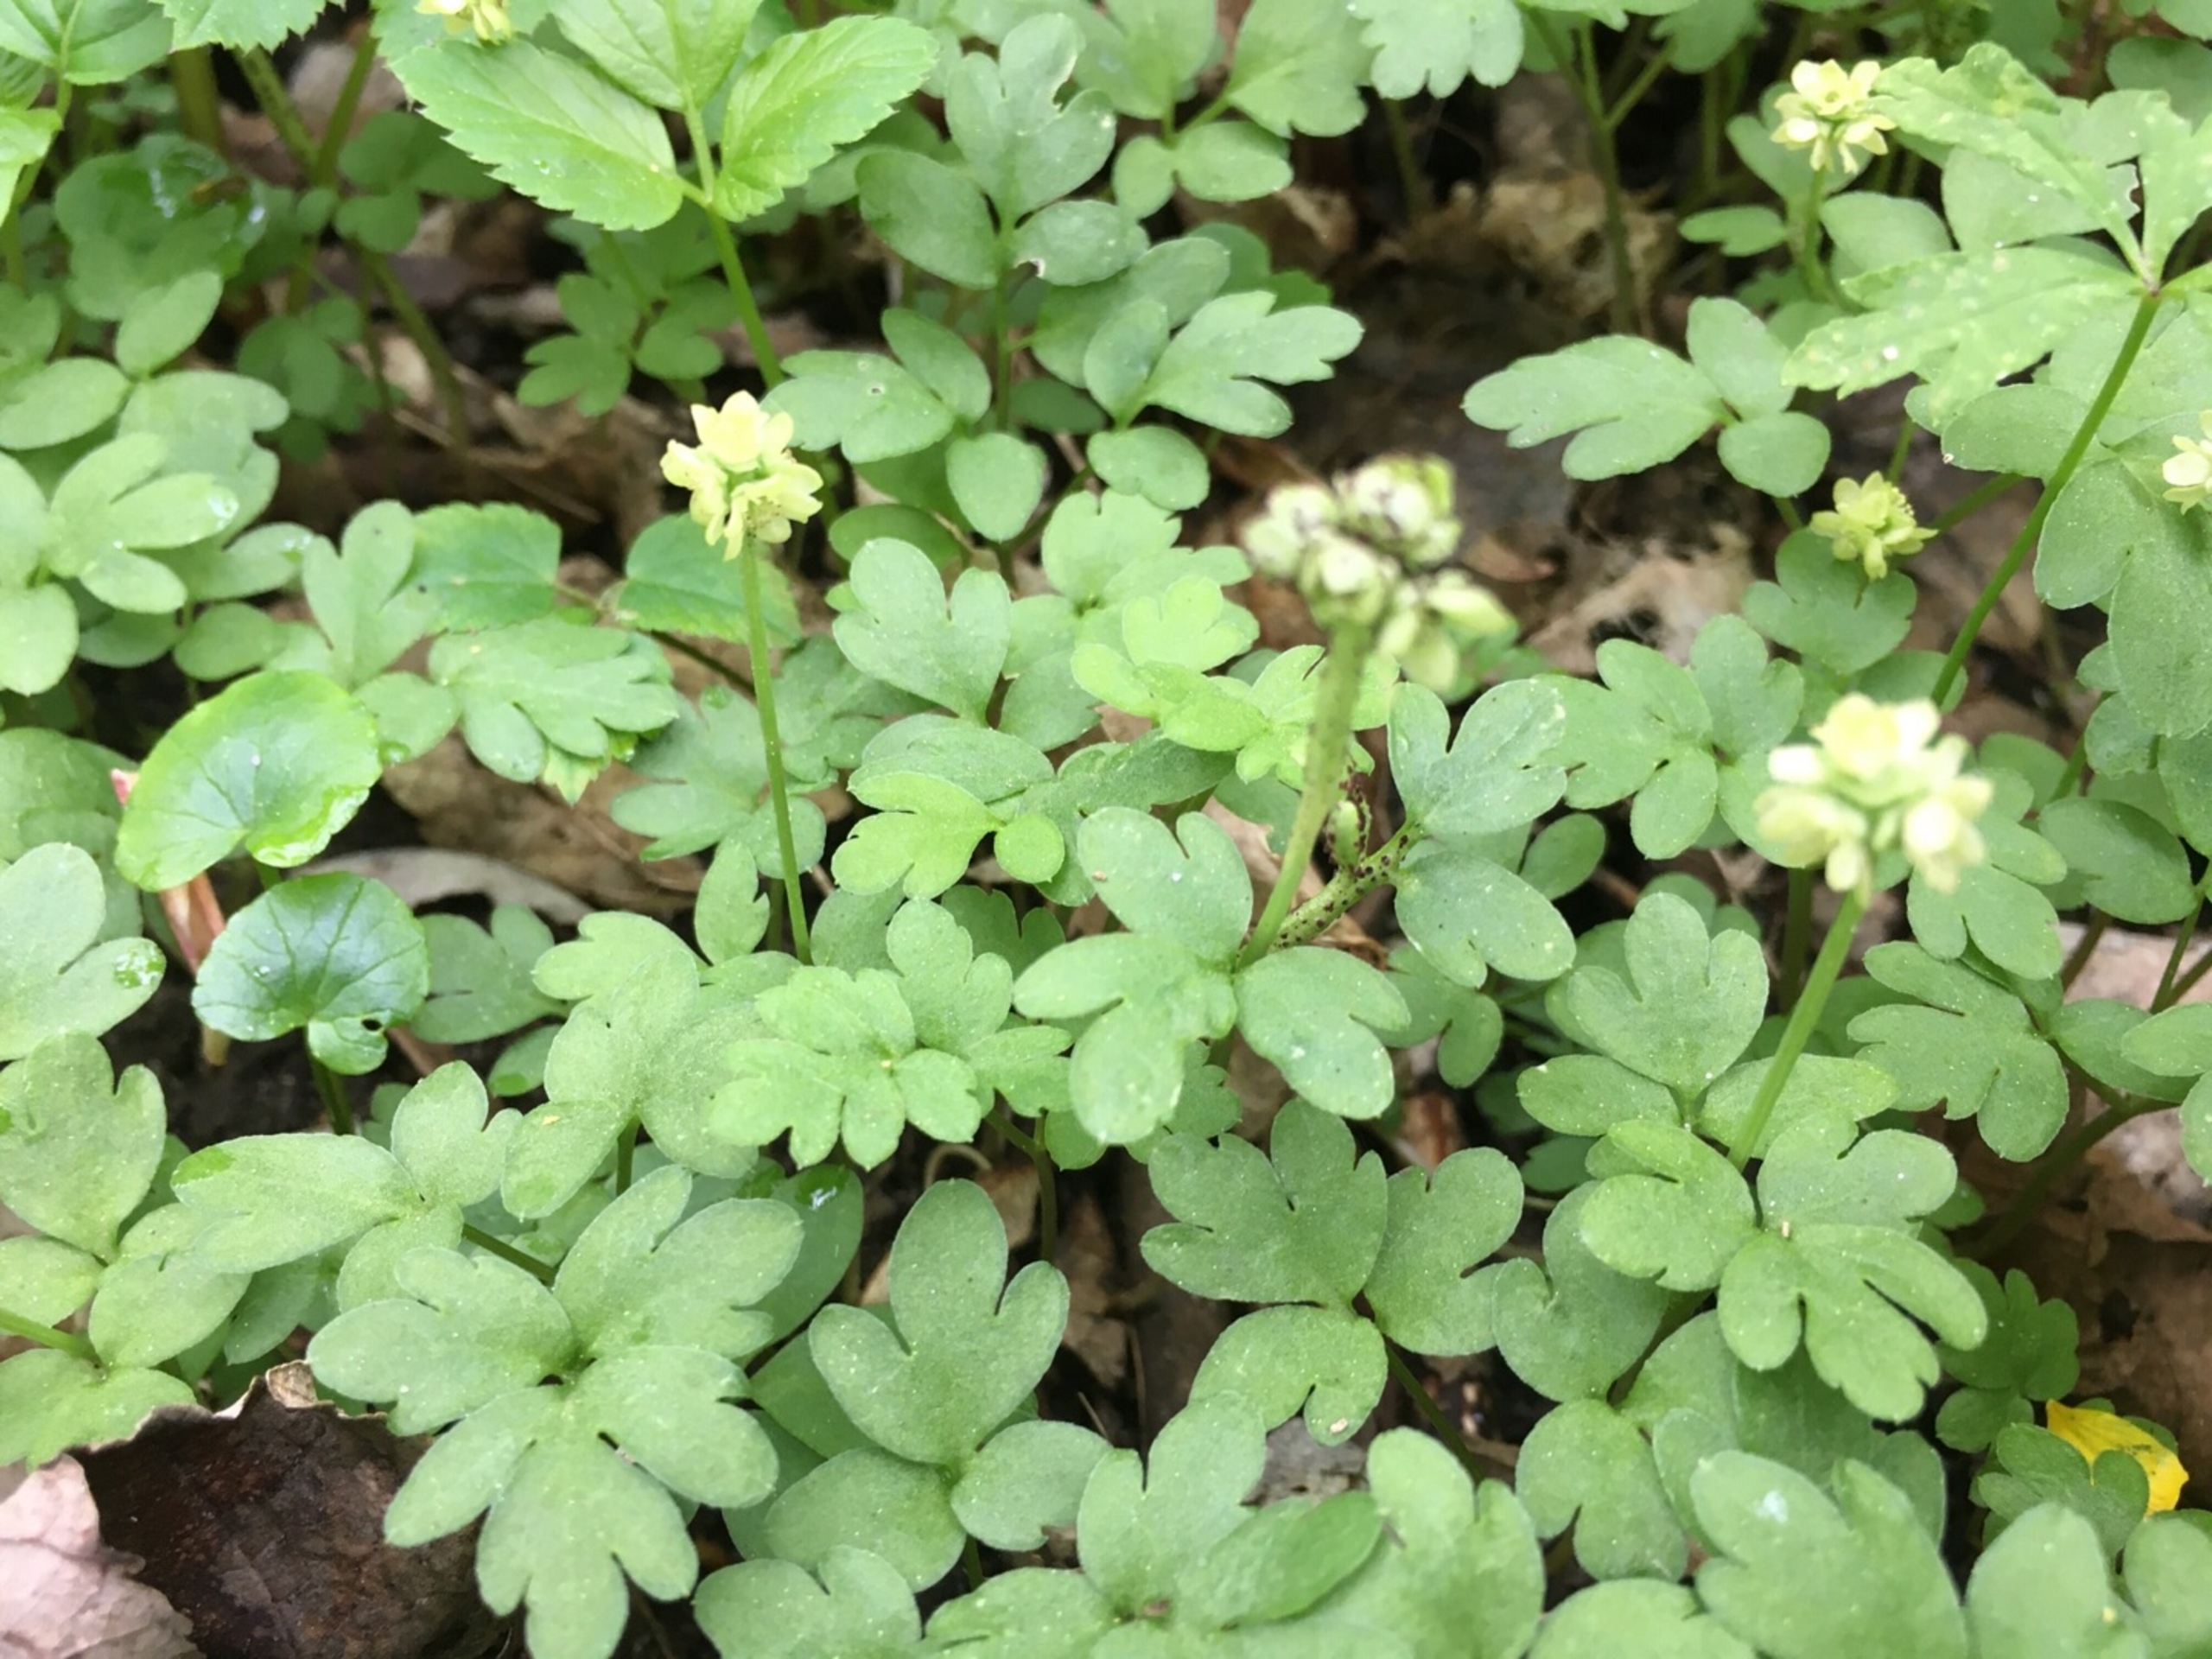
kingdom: Plantae
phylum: Tracheophyta
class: Magnoliopsida
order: Dipsacales
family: Viburnaceae
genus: Adoxa
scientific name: Adoxa moschatellina
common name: Desmerurt
